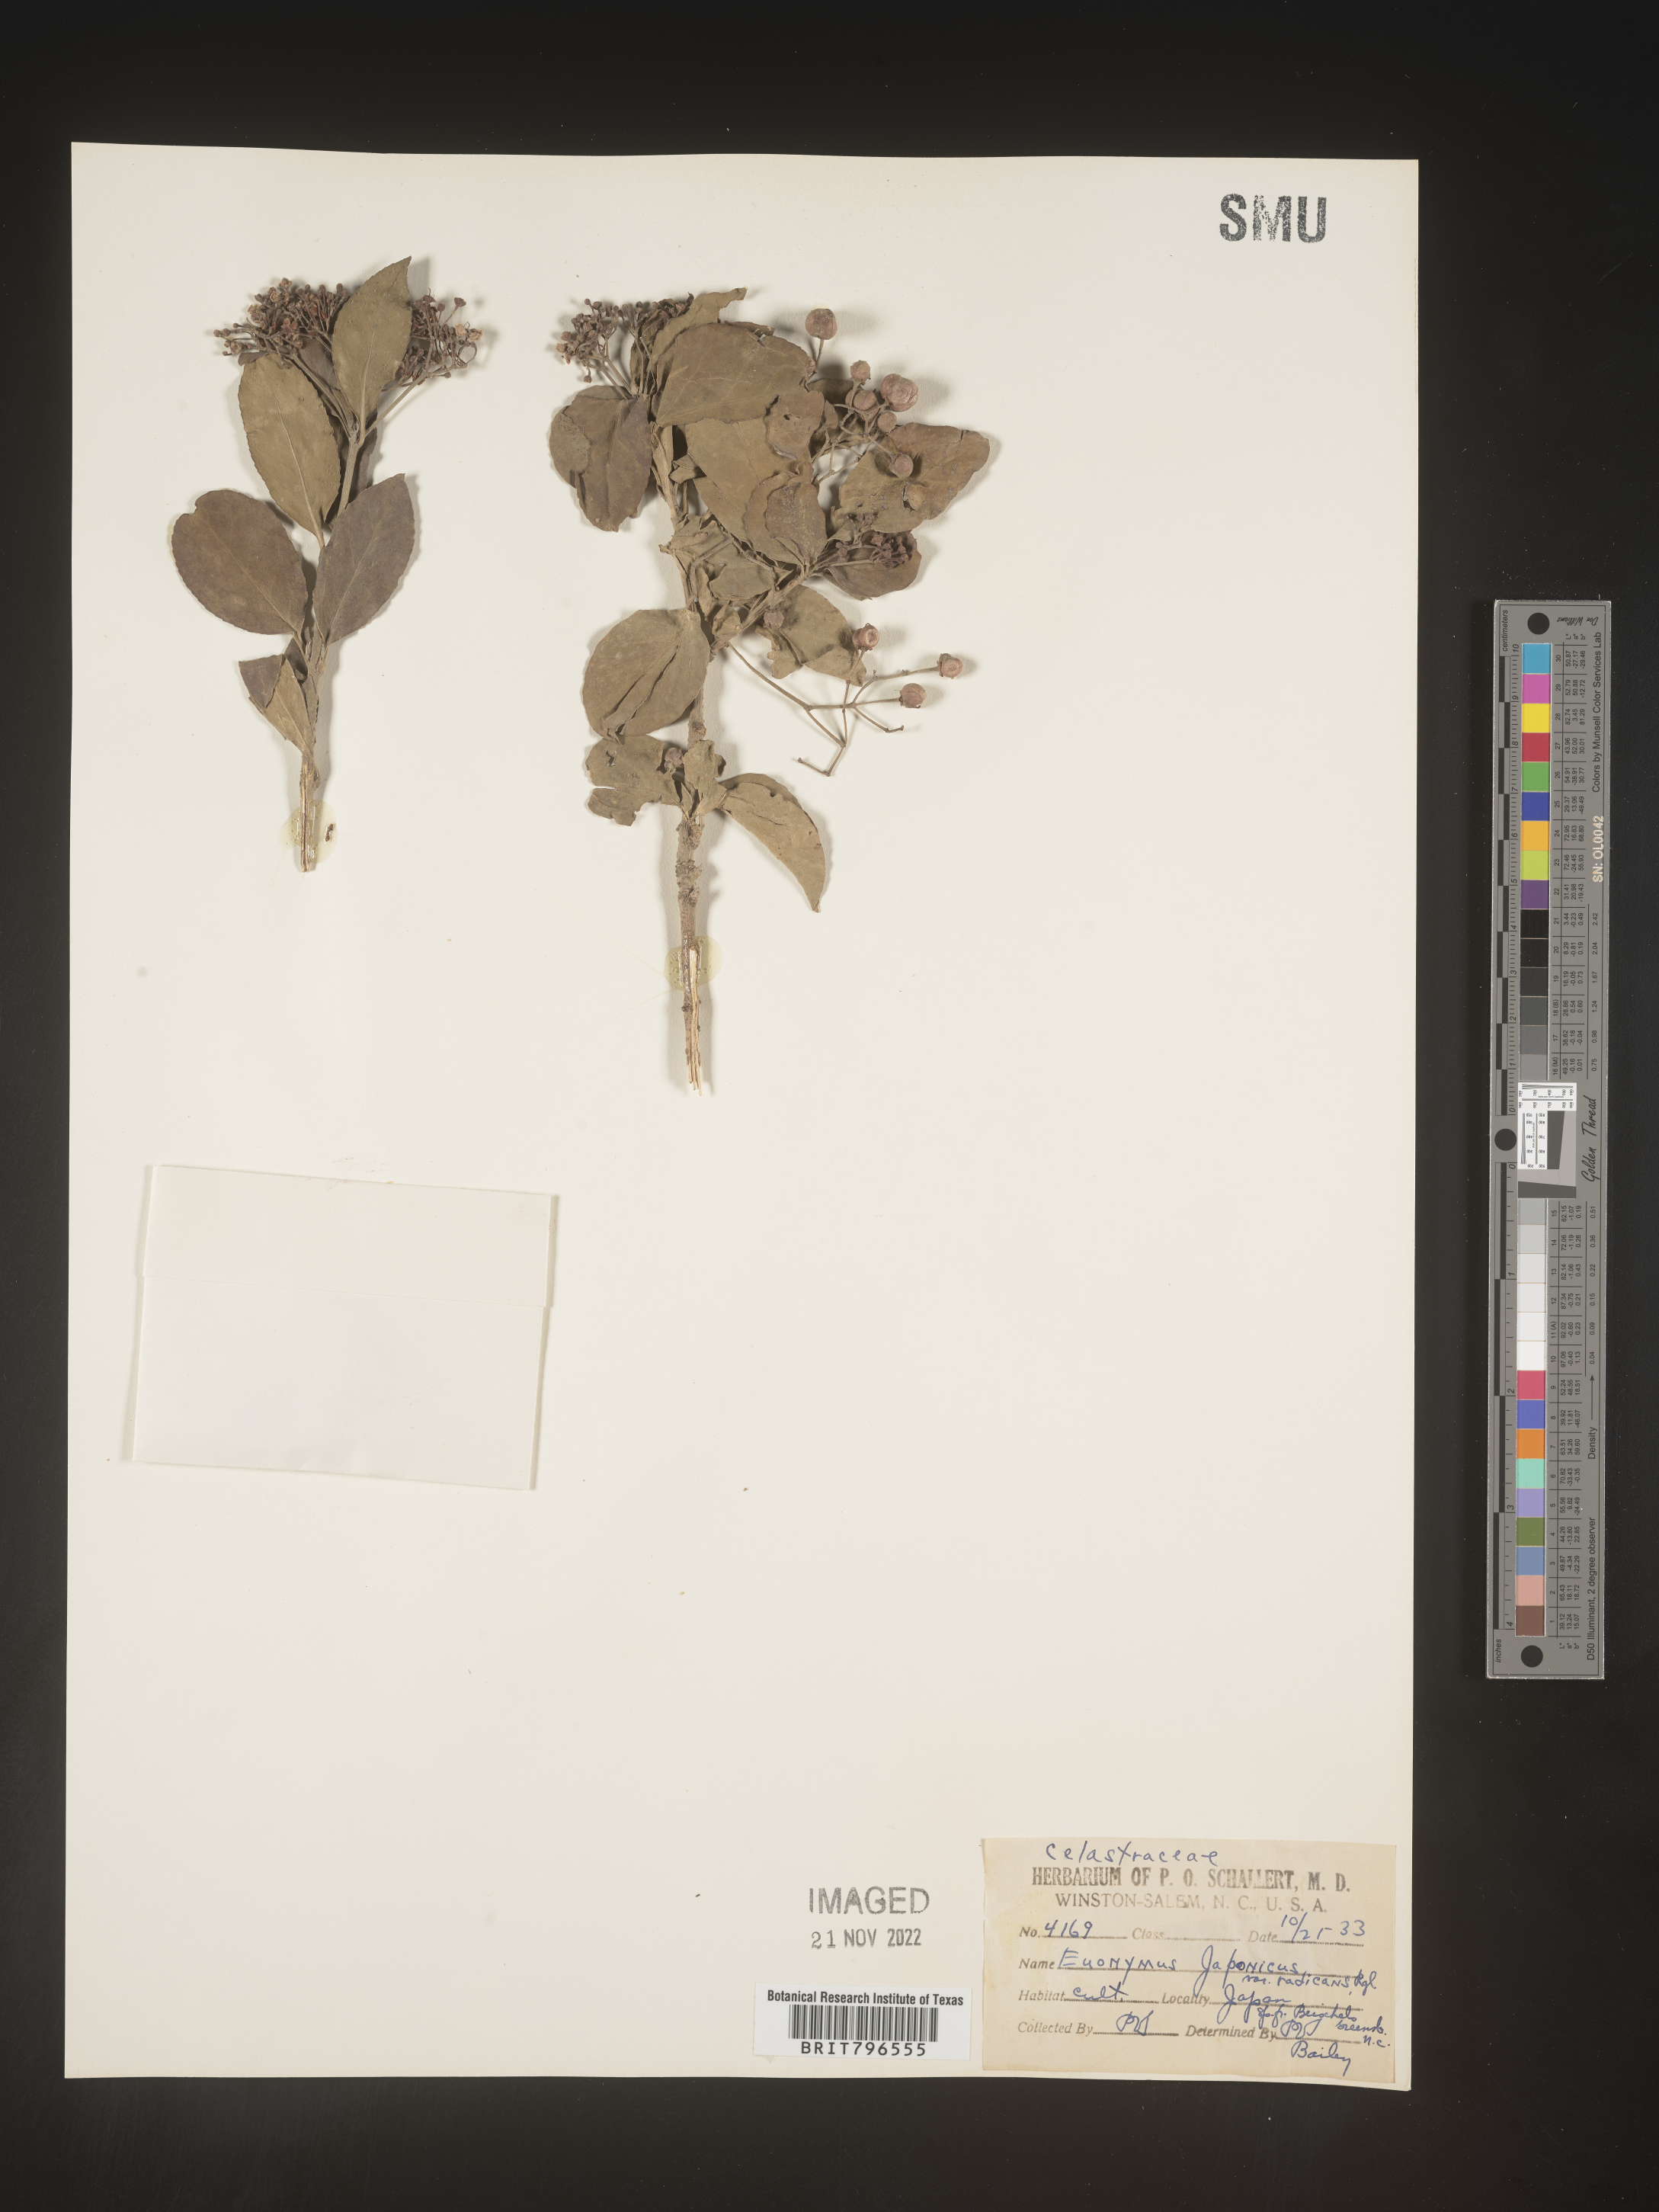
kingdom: Plantae
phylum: Tracheophyta
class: Magnoliopsida
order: Celastrales
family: Celastraceae
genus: Euonymus
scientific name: Euonymus
